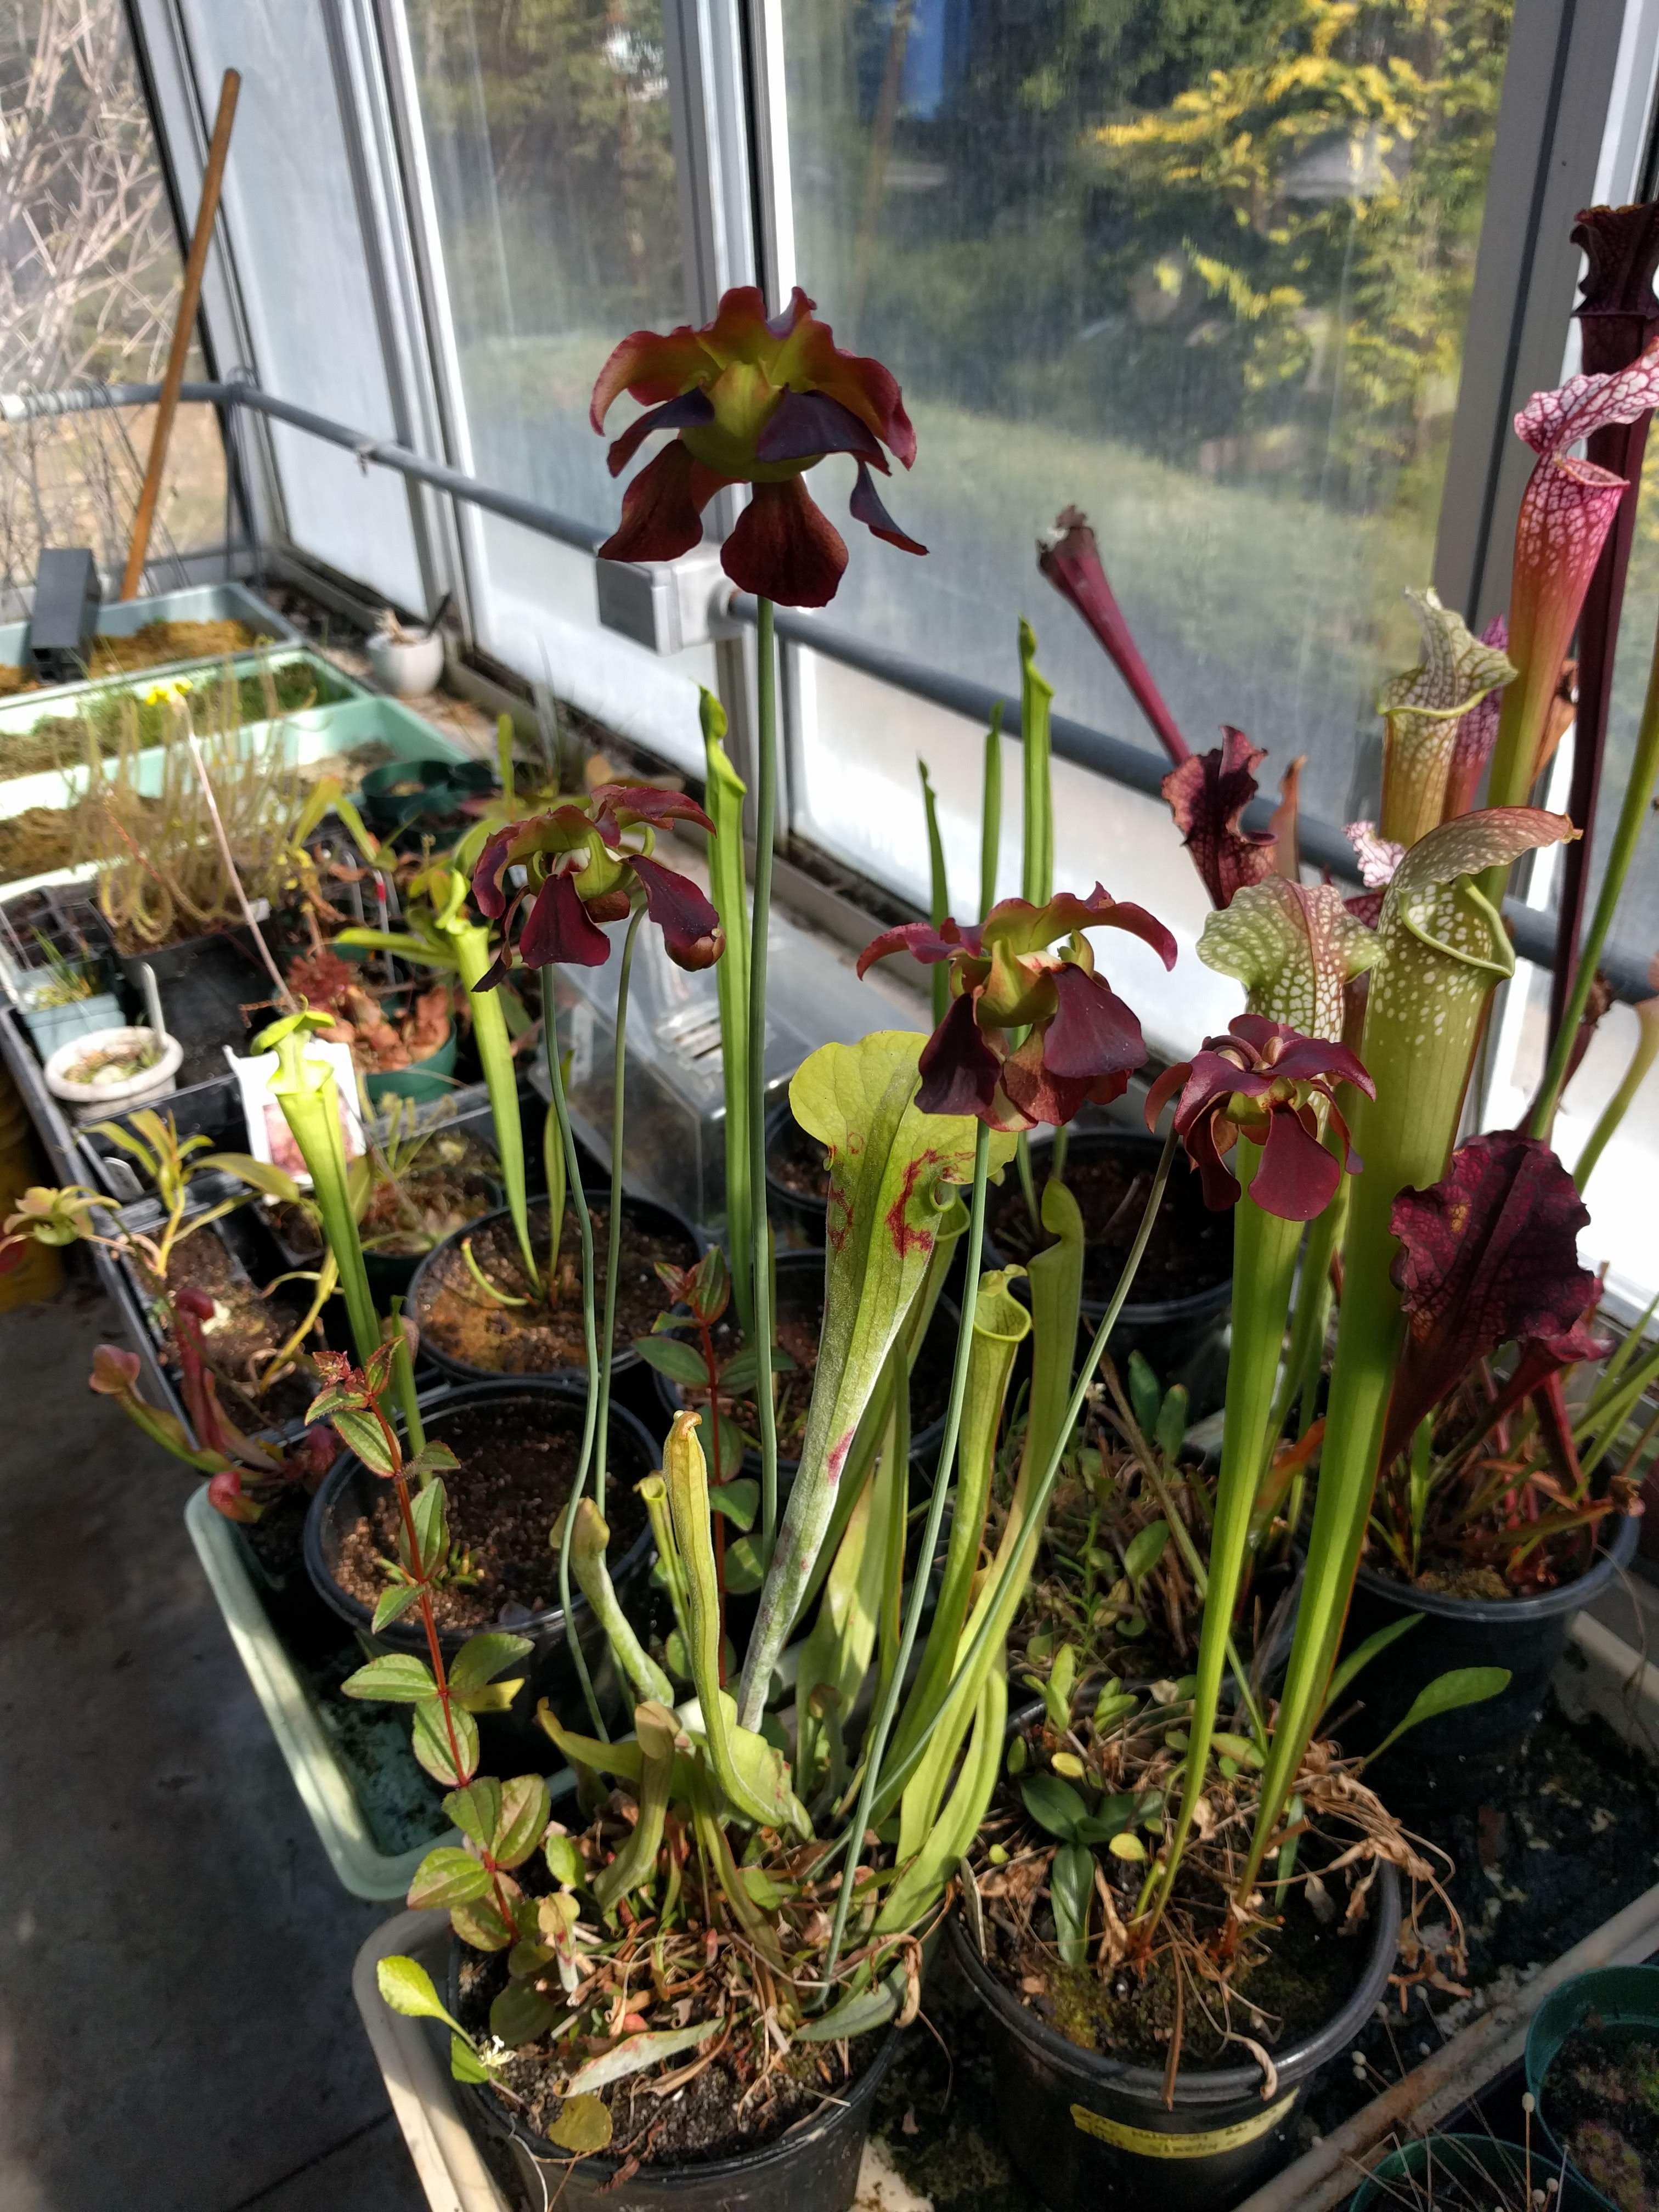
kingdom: Plantae
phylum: Tracheophyta
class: Magnoliopsida
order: Ericales
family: Sarraceniaceae
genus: Sarracenia
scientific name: Sarracenia rubra
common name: Sweet pitcherplant
